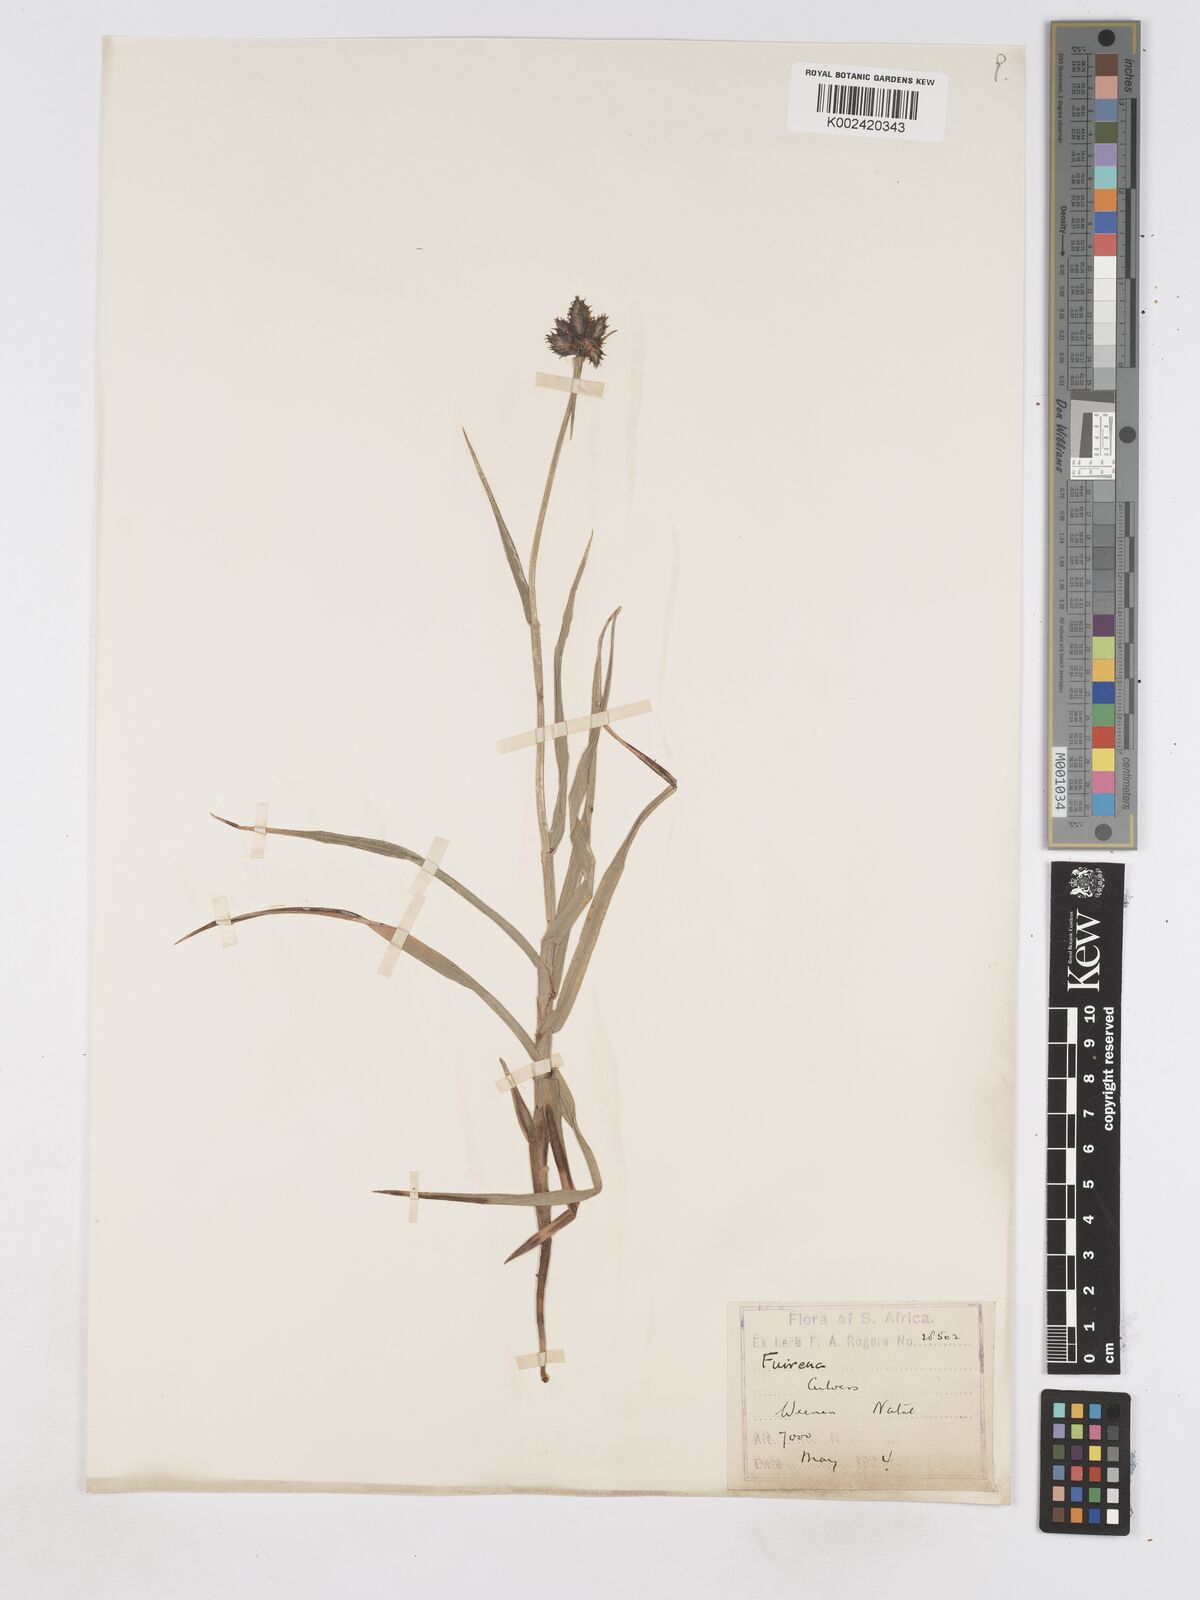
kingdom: Plantae
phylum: Tracheophyta
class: Liliopsida
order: Poales
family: Cyperaceae
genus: Fuirena
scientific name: Fuirena
